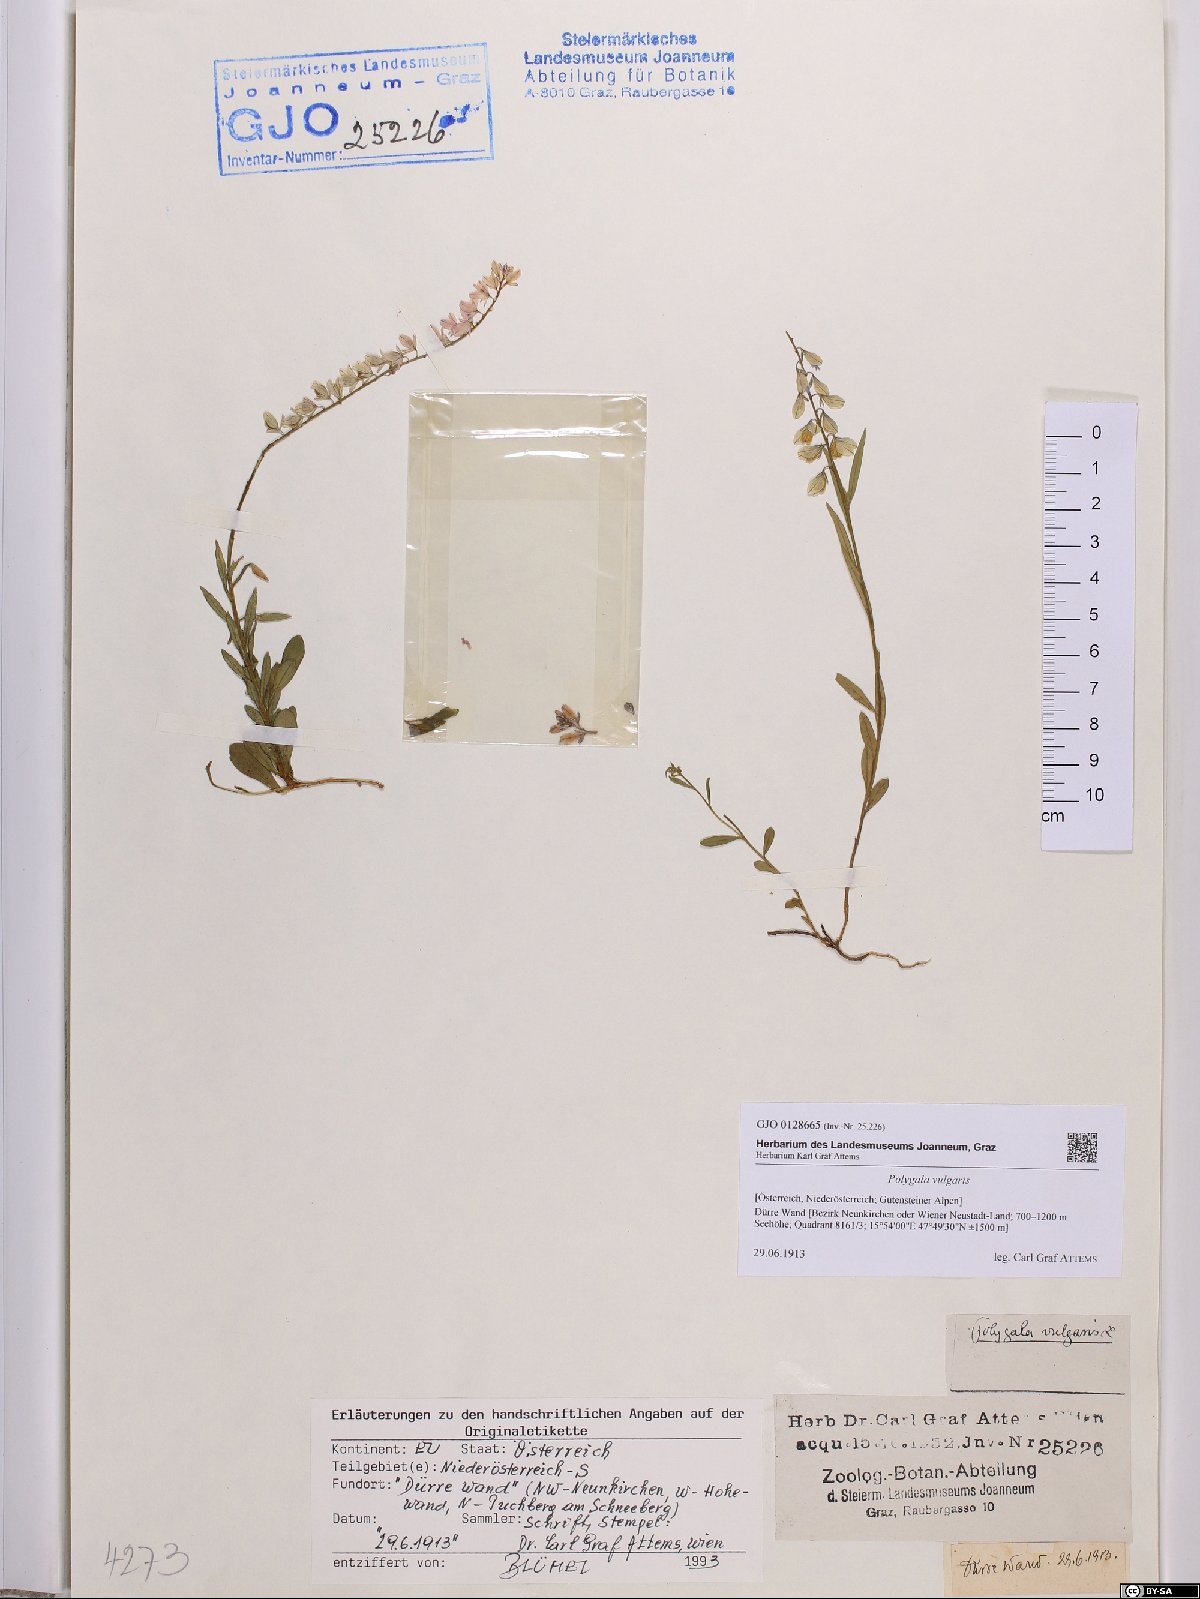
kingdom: Plantae
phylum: Tracheophyta
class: Magnoliopsida
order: Fabales
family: Polygalaceae
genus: Polygala
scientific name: Polygala vulgaris
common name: Common milkwort
